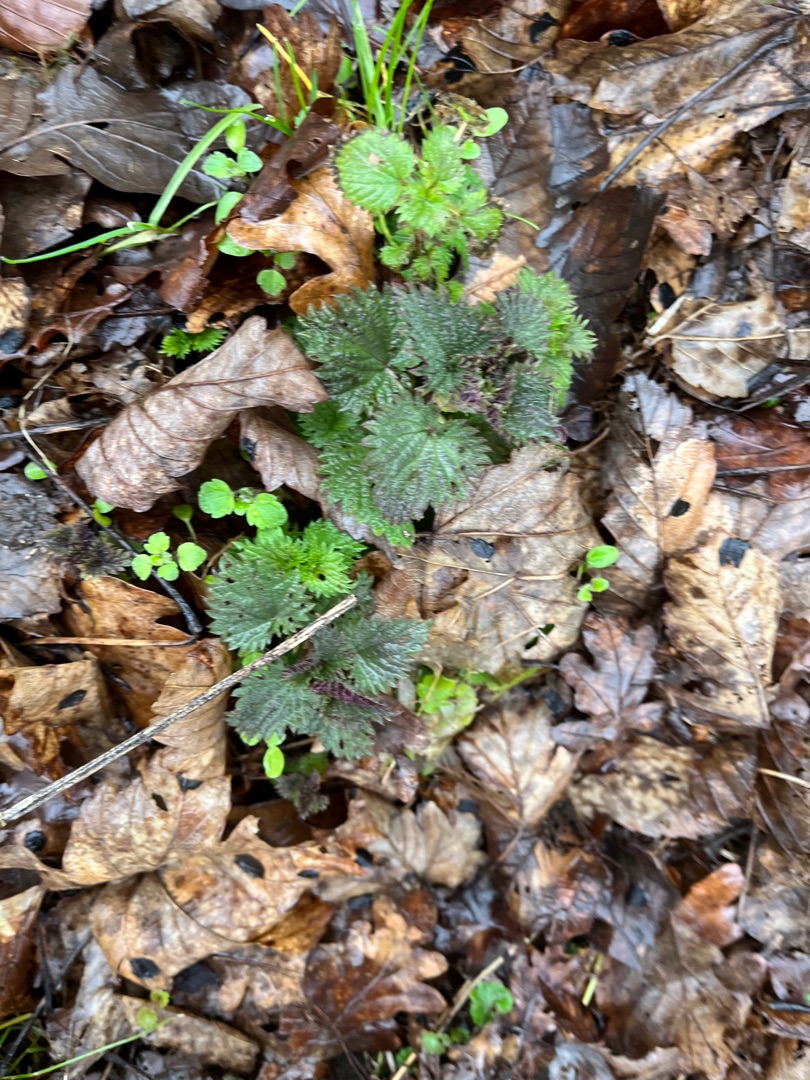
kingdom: Plantae
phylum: Tracheophyta
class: Magnoliopsida
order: Rosales
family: Urticaceae
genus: Urtica
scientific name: Urtica dioica
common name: Stor nælde
